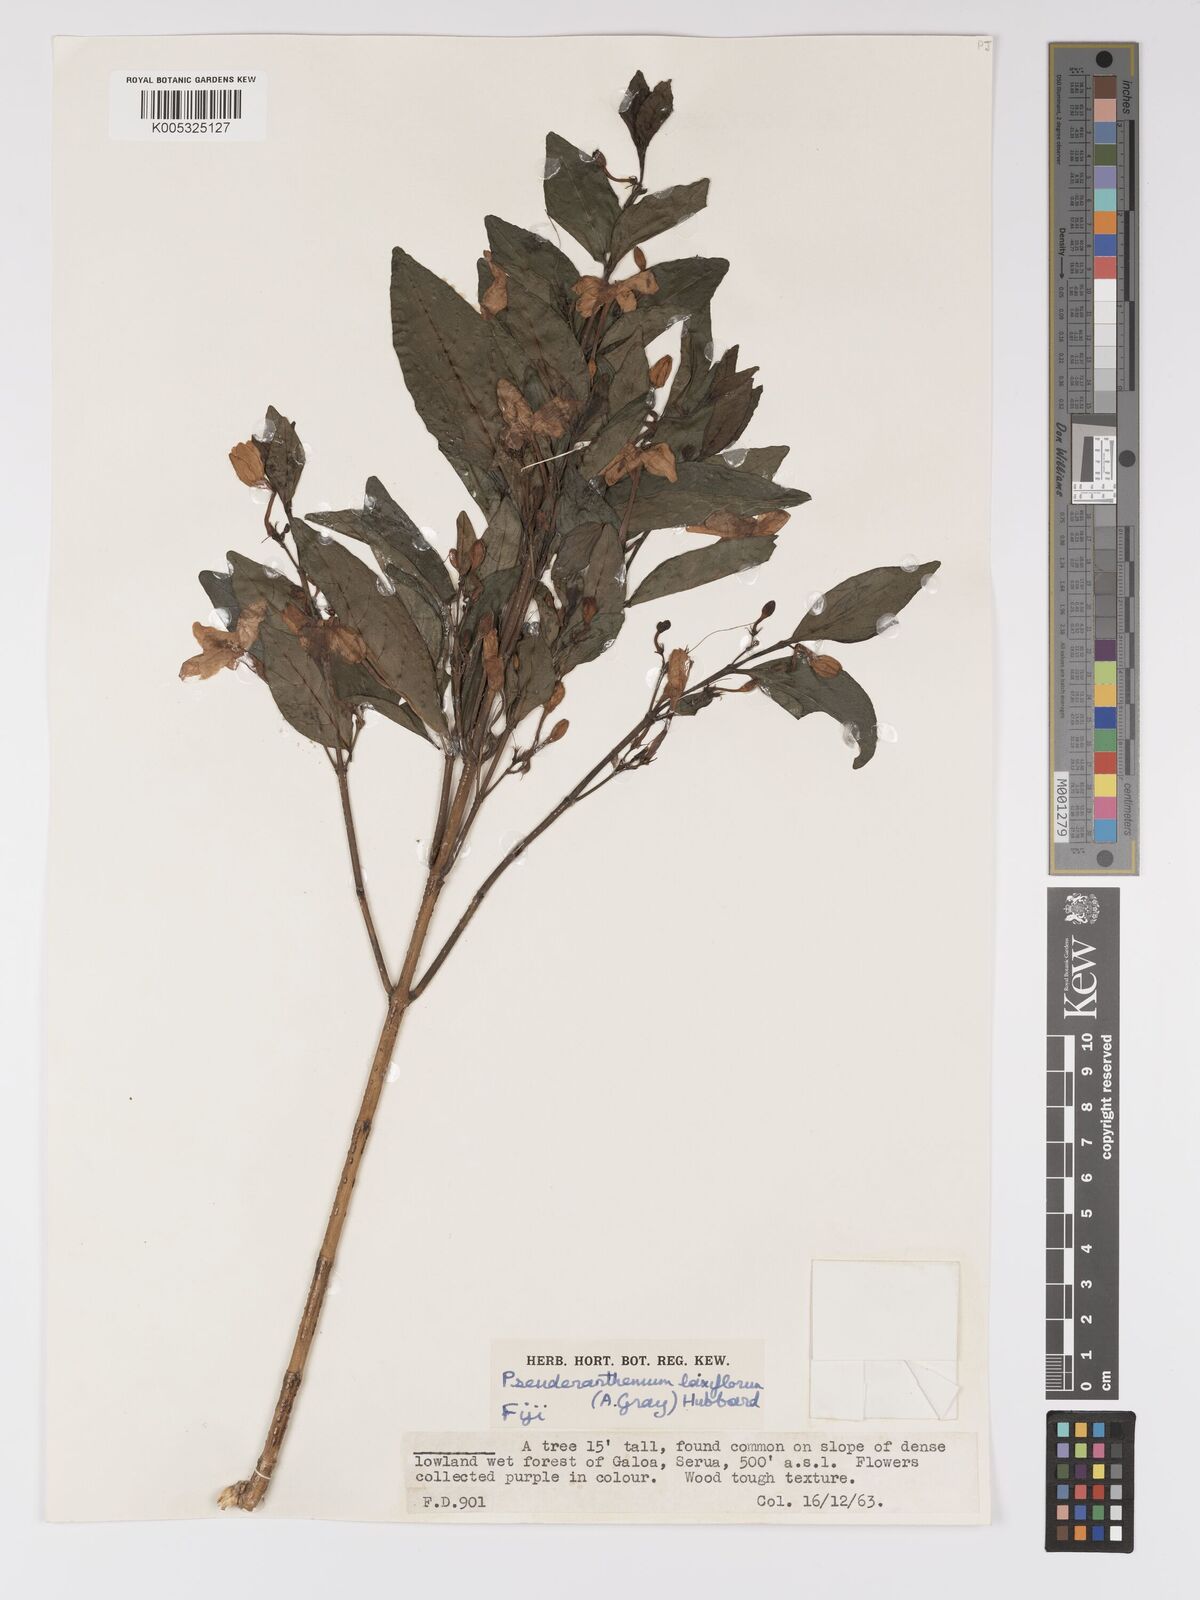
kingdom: Plantae
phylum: Tracheophyta
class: Magnoliopsida
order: Lamiales
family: Acanthaceae
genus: Pseuderanthemum
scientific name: Pseuderanthemum laxiflorum
